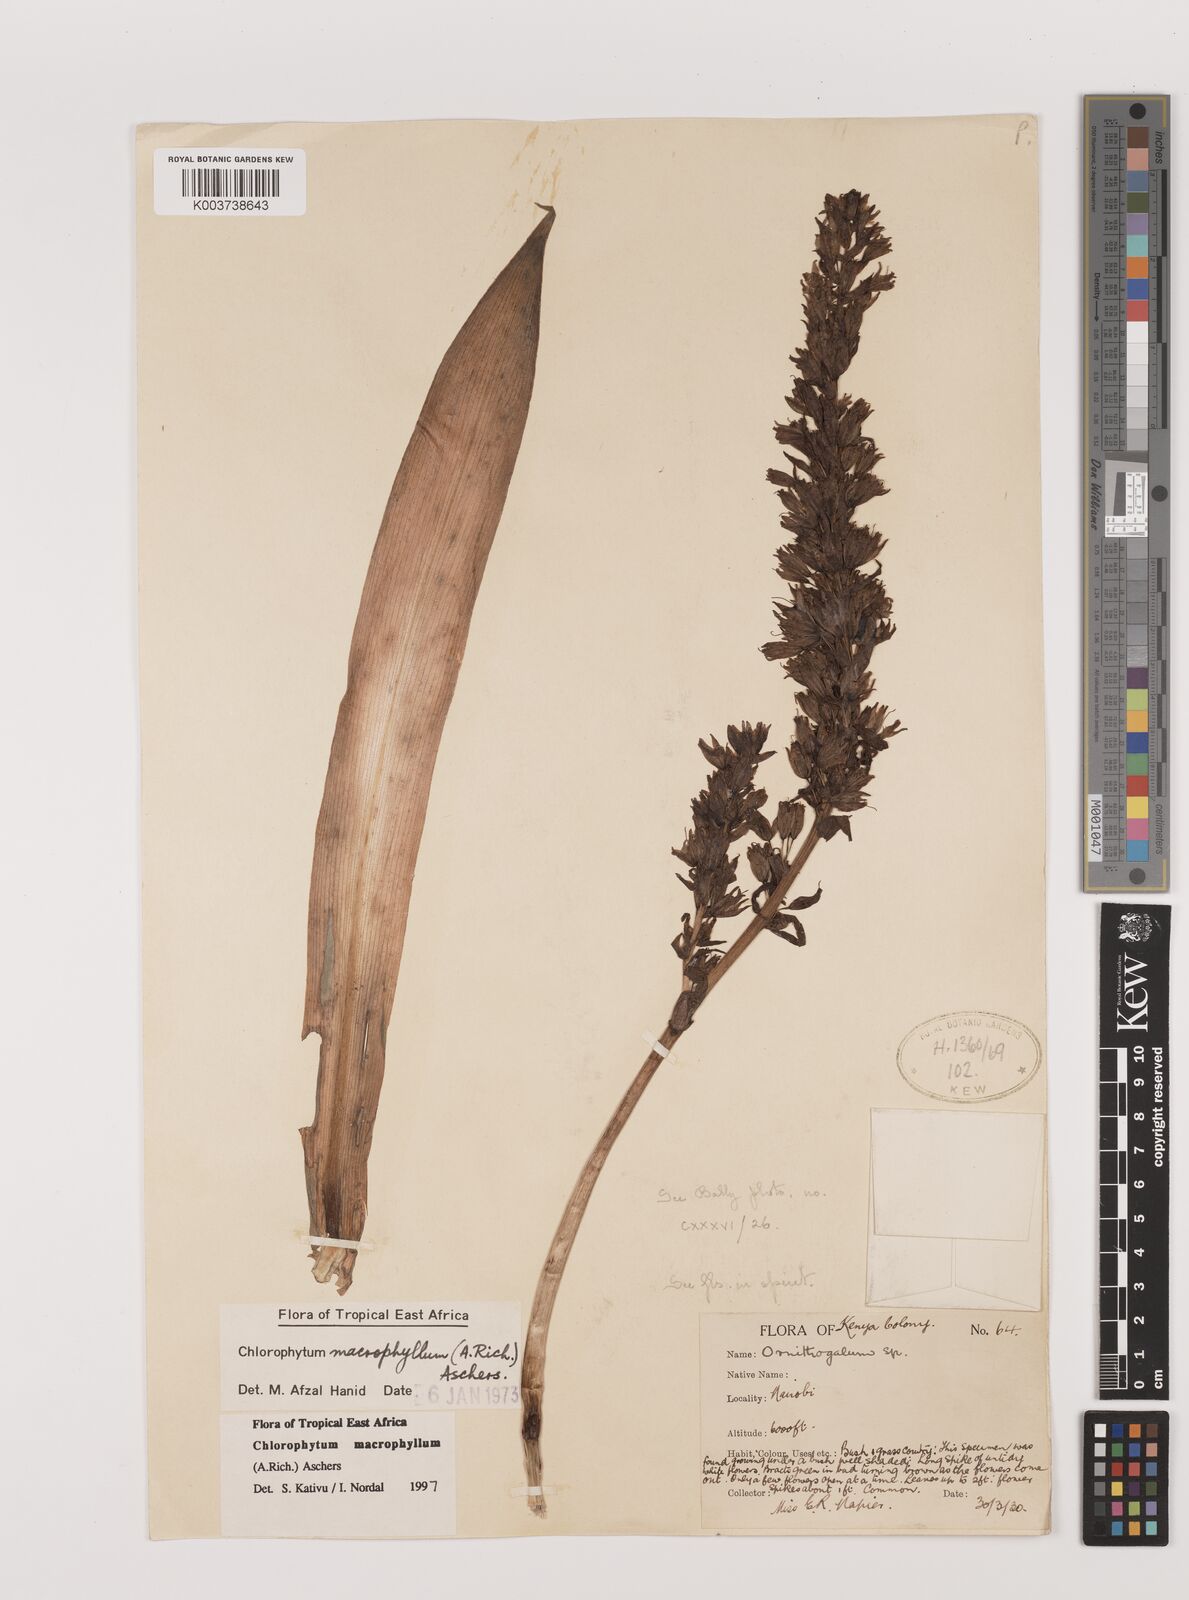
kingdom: Plantae
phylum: Tracheophyta
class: Liliopsida
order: Asparagales
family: Asparagaceae
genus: Chlorophytum
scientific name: Chlorophytum macrophyllum
